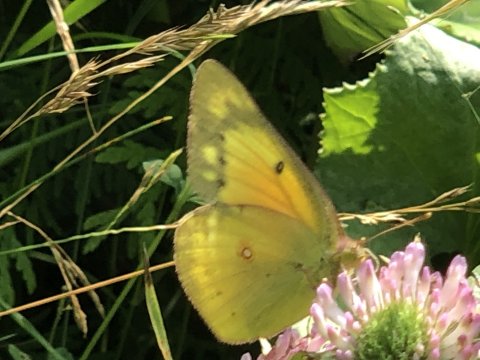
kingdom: Animalia
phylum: Arthropoda
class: Insecta
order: Lepidoptera
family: Pieridae
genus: Colias
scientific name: Colias eurytheme
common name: Orange Sulphur
